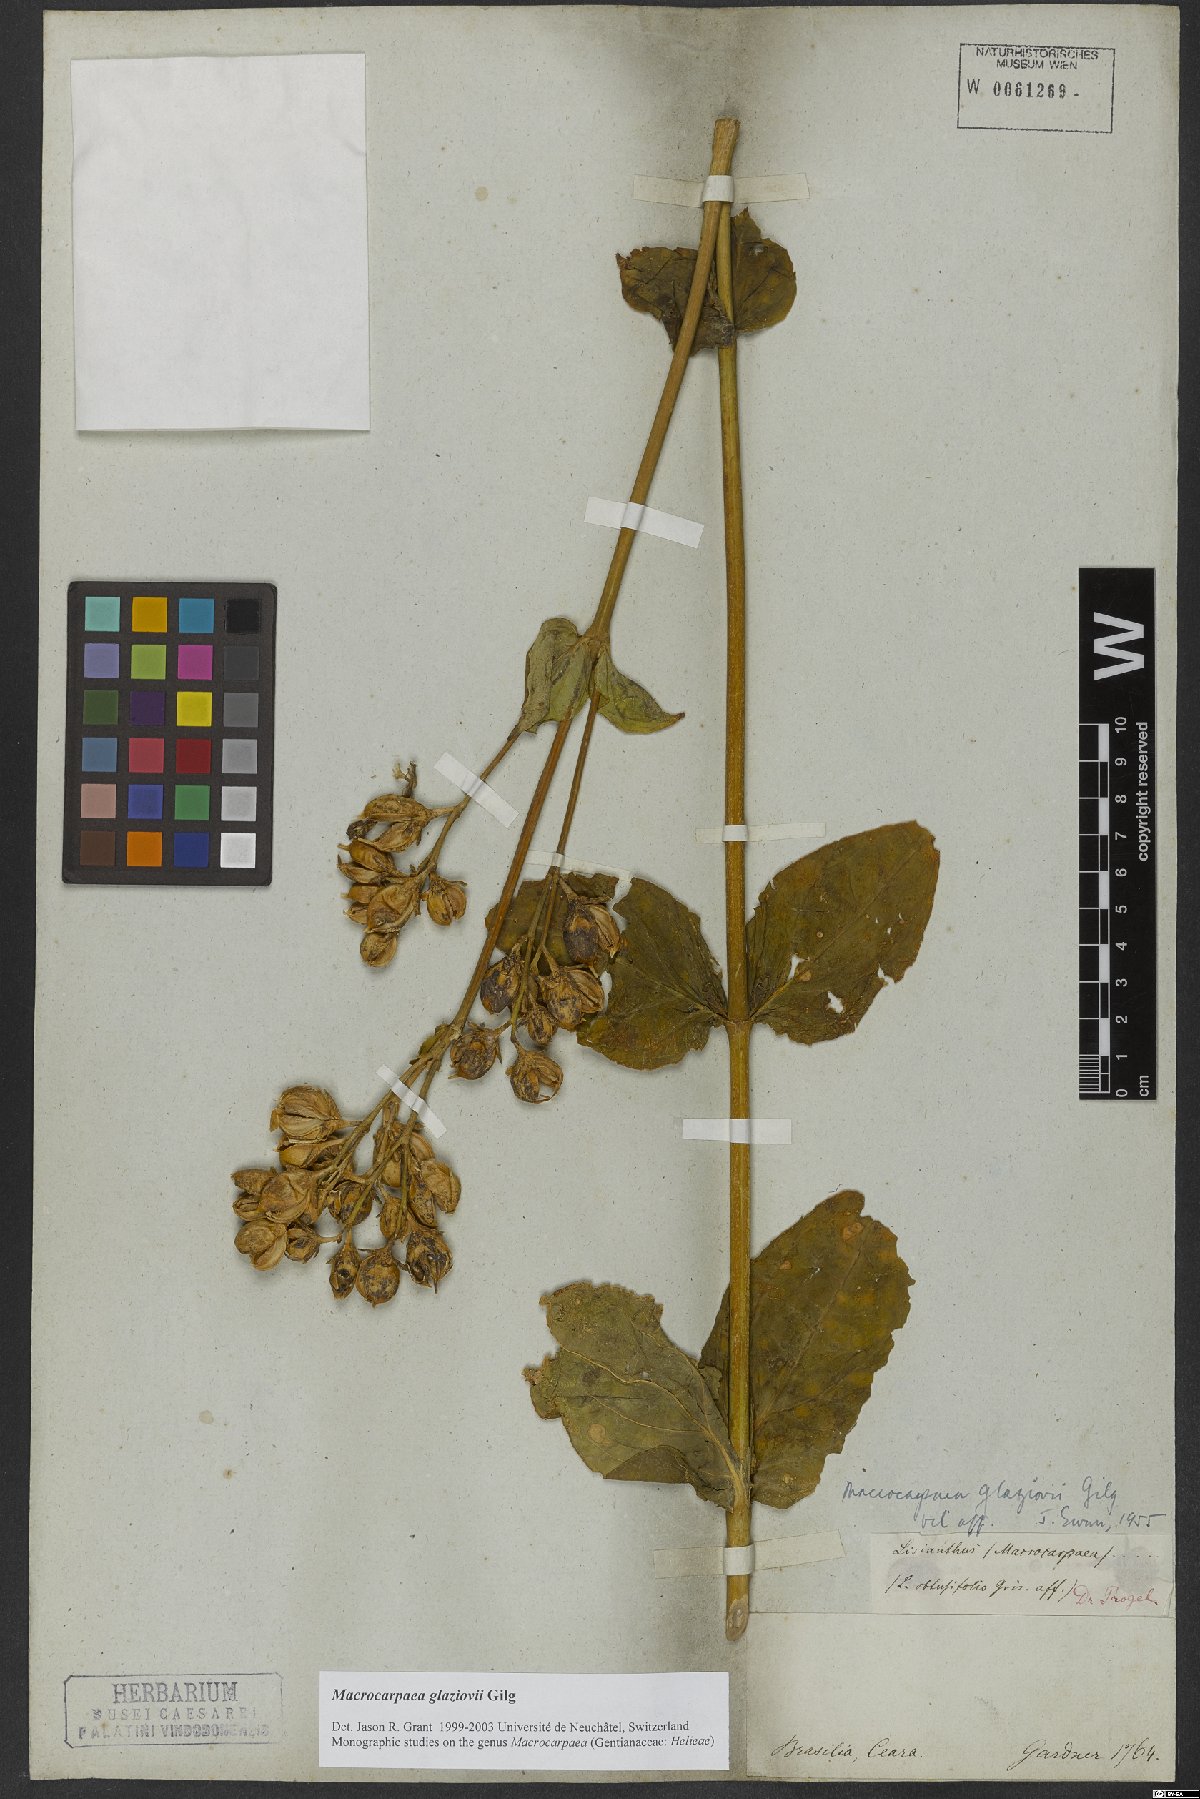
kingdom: Plantae
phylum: Tracheophyta
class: Magnoliopsida
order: Gentianales
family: Gentianaceae
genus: Macrocarpaea
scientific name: Macrocarpaea glaziovii
